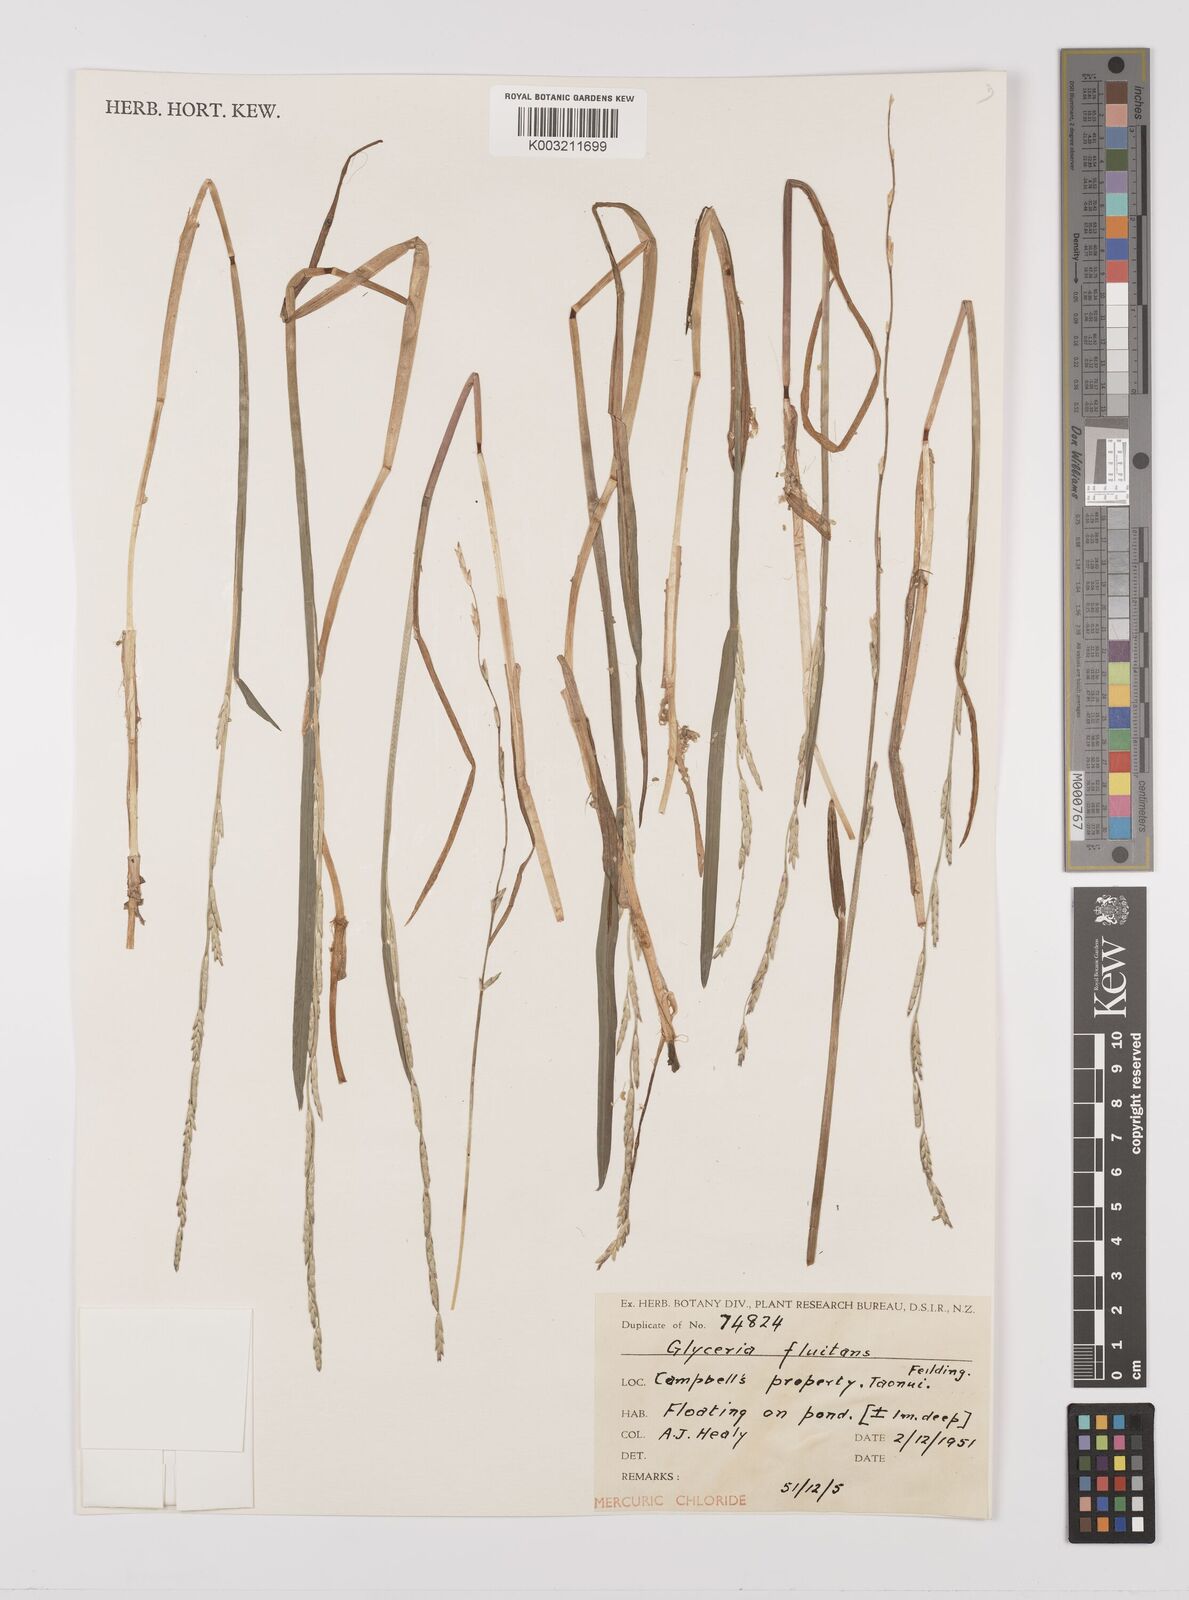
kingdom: Plantae
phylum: Tracheophyta
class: Liliopsida
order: Poales
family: Poaceae
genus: Glyceria
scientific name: Glyceria fluitans
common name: Floating sweet-grass
